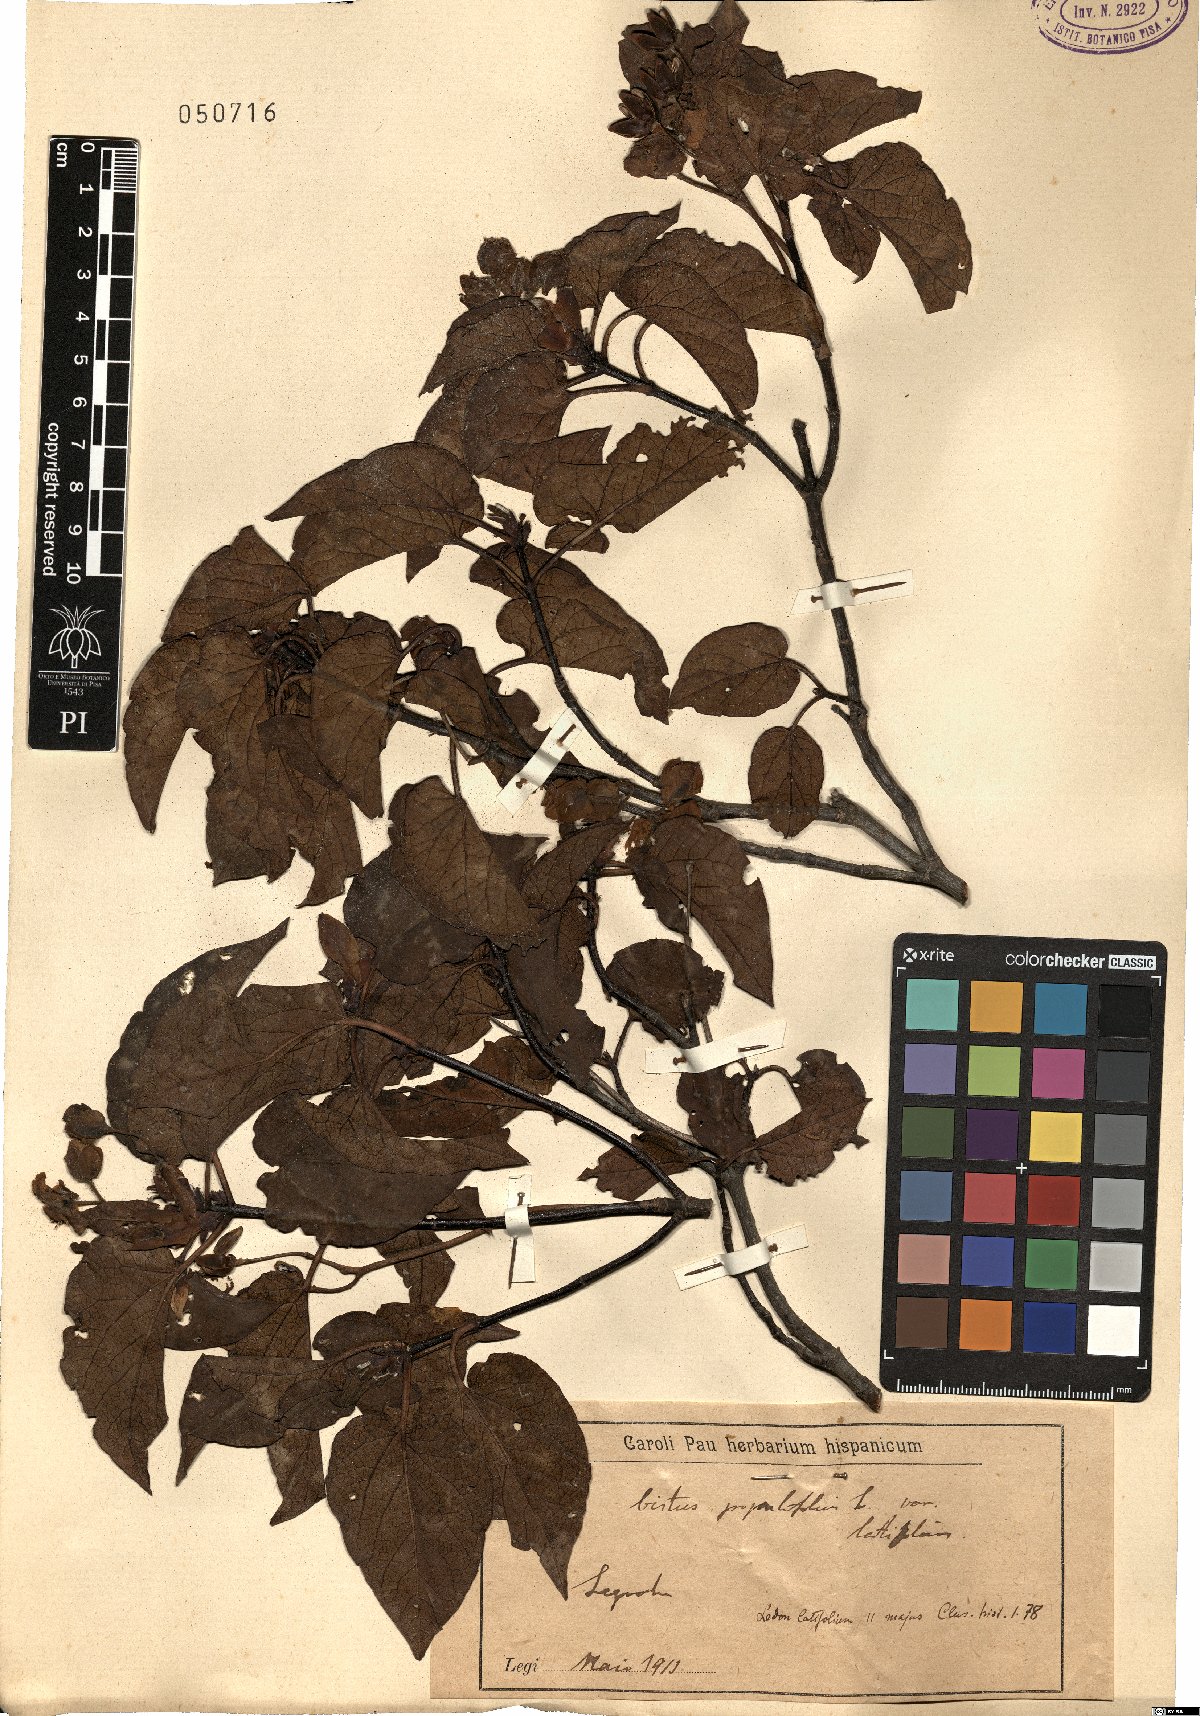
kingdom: Plantae
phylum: Tracheophyta
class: Magnoliopsida
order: Malvales
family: Cistaceae
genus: Cistus
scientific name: Cistus populifolius
